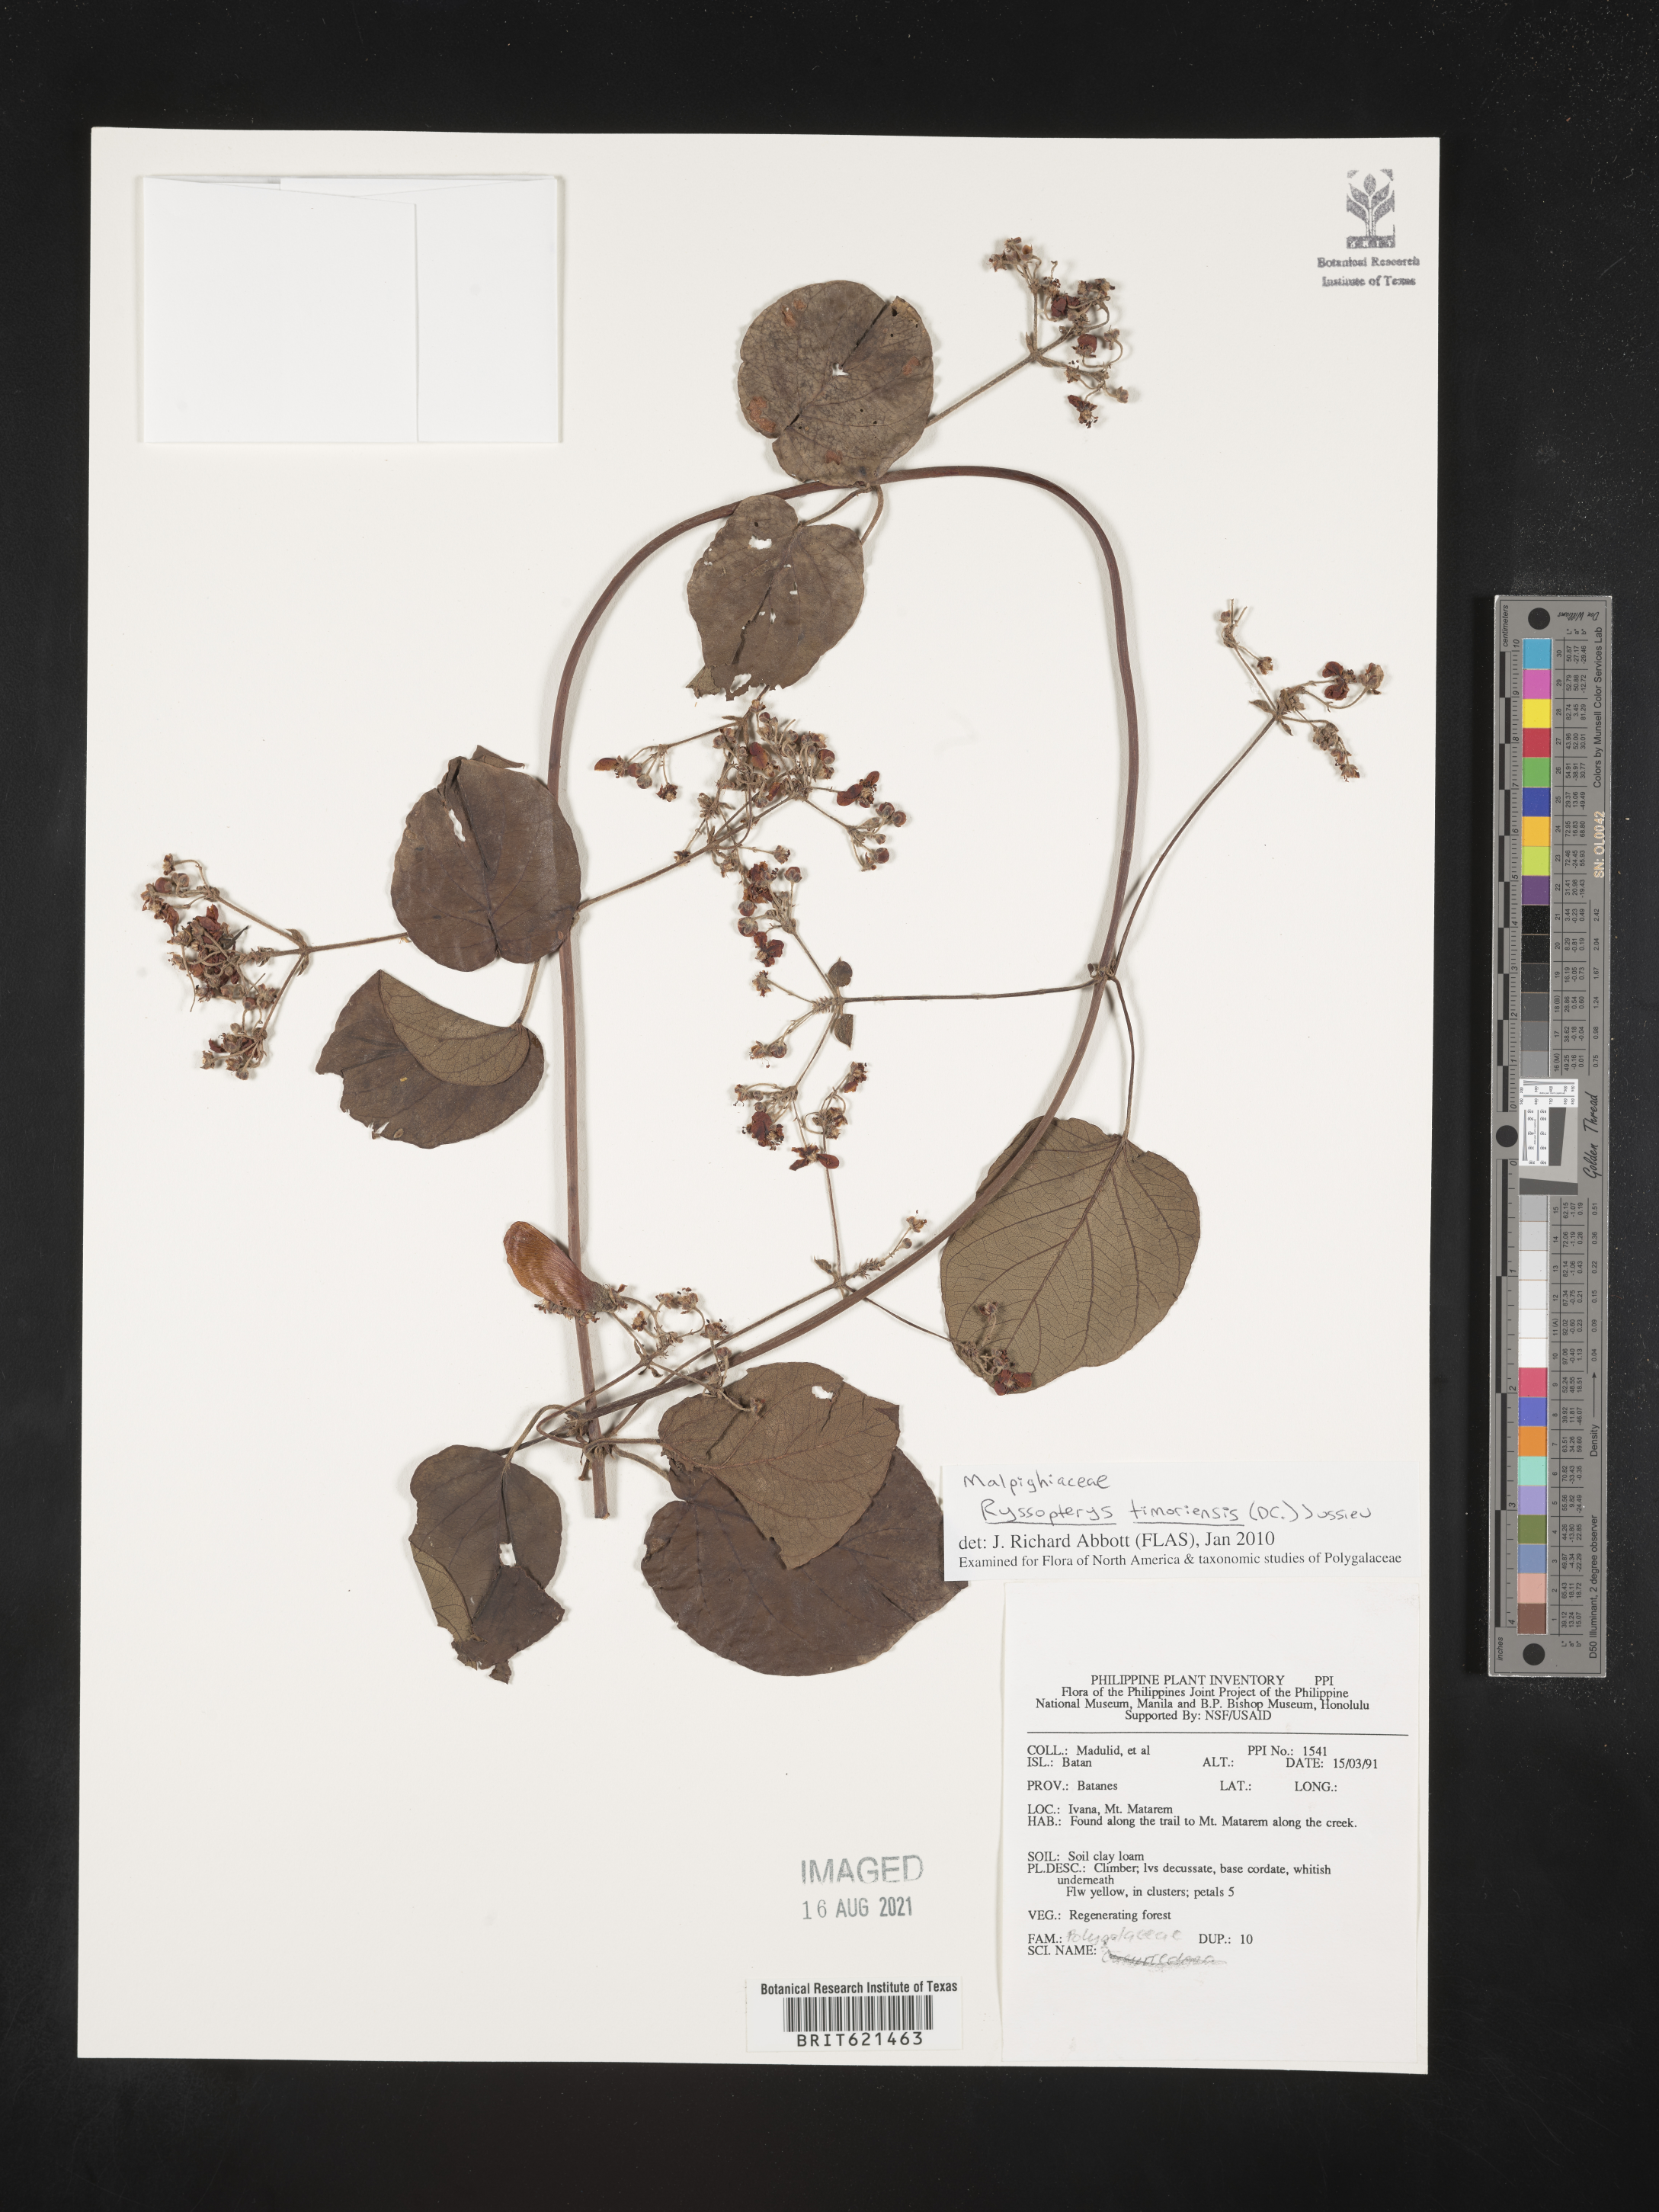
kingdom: Plantae
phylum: Tracheophyta
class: Magnoliopsida
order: Malpighiales
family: Malpighiaceae
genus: Stigmaphyllon
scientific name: Stigmaphyllon timoriense
